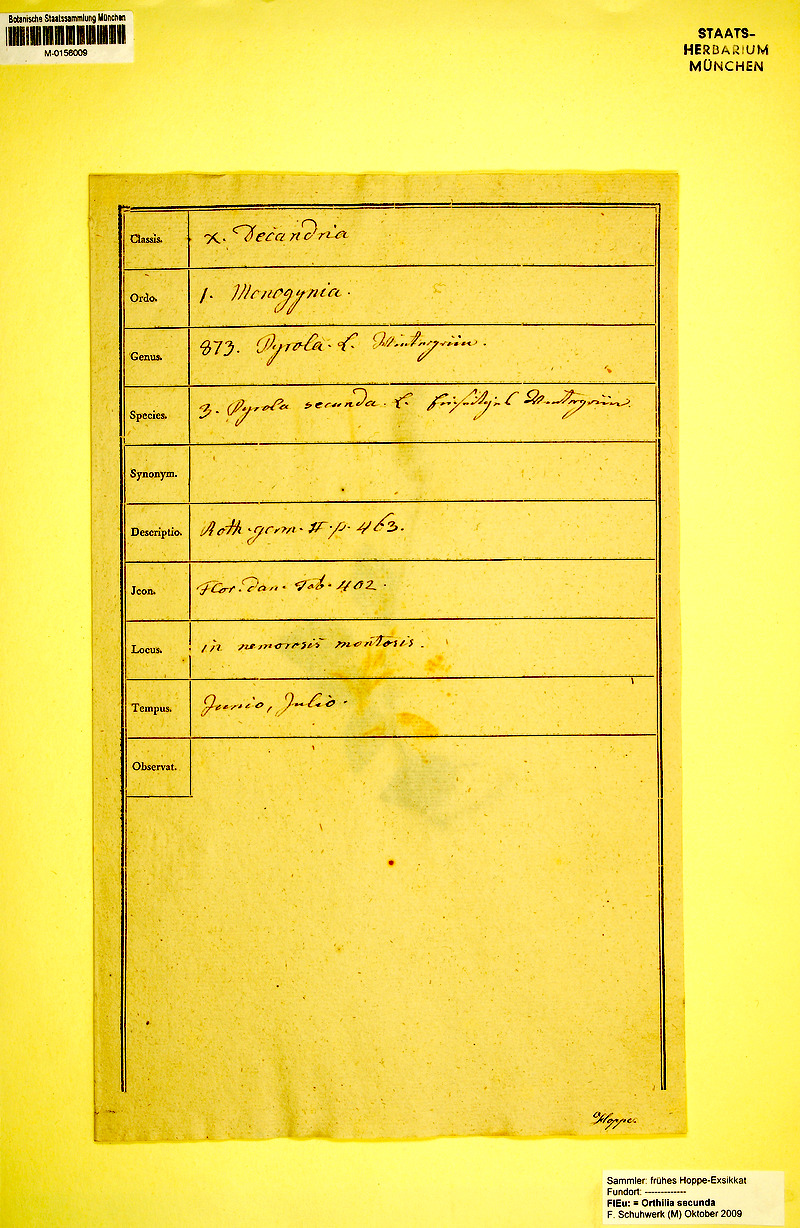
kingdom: Plantae
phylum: Tracheophyta
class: Magnoliopsida
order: Ericales
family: Ericaceae
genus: Orthilia
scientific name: Orthilia secunda
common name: One-sided orthilia
